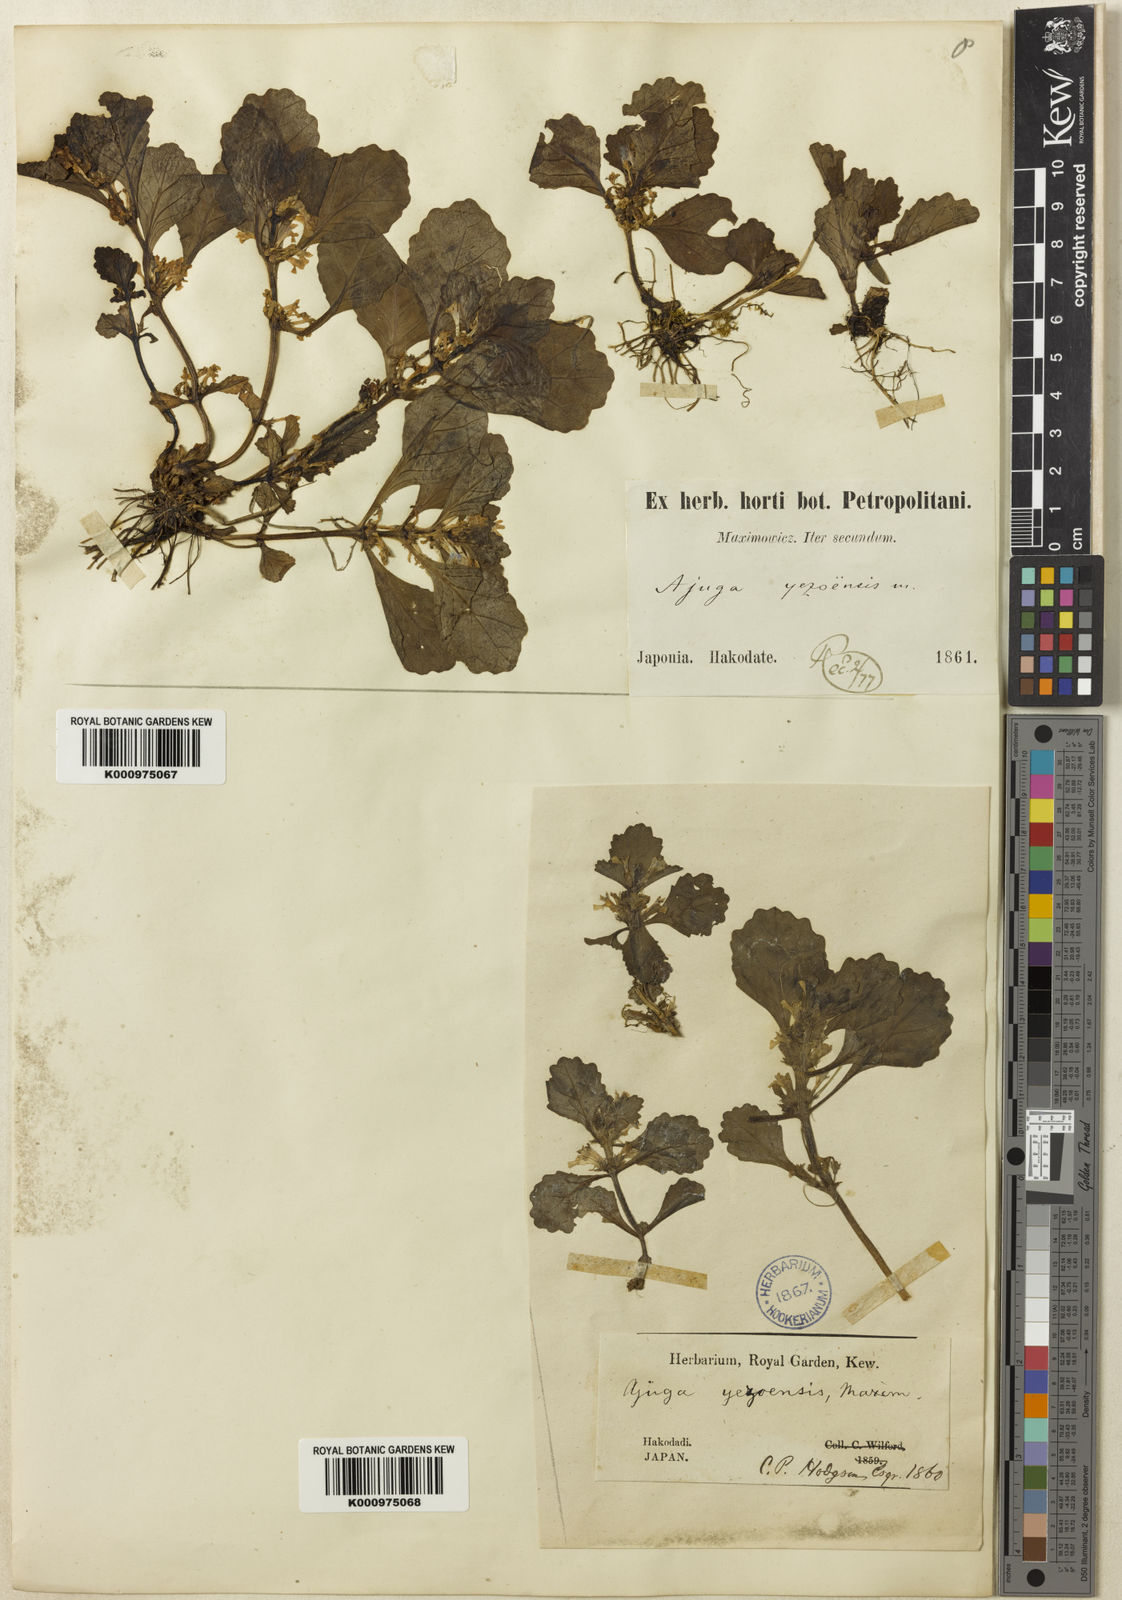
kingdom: Plantae
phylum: Tracheophyta
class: Magnoliopsida
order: Lamiales
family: Lamiaceae
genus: Ajuga
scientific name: Ajuga
